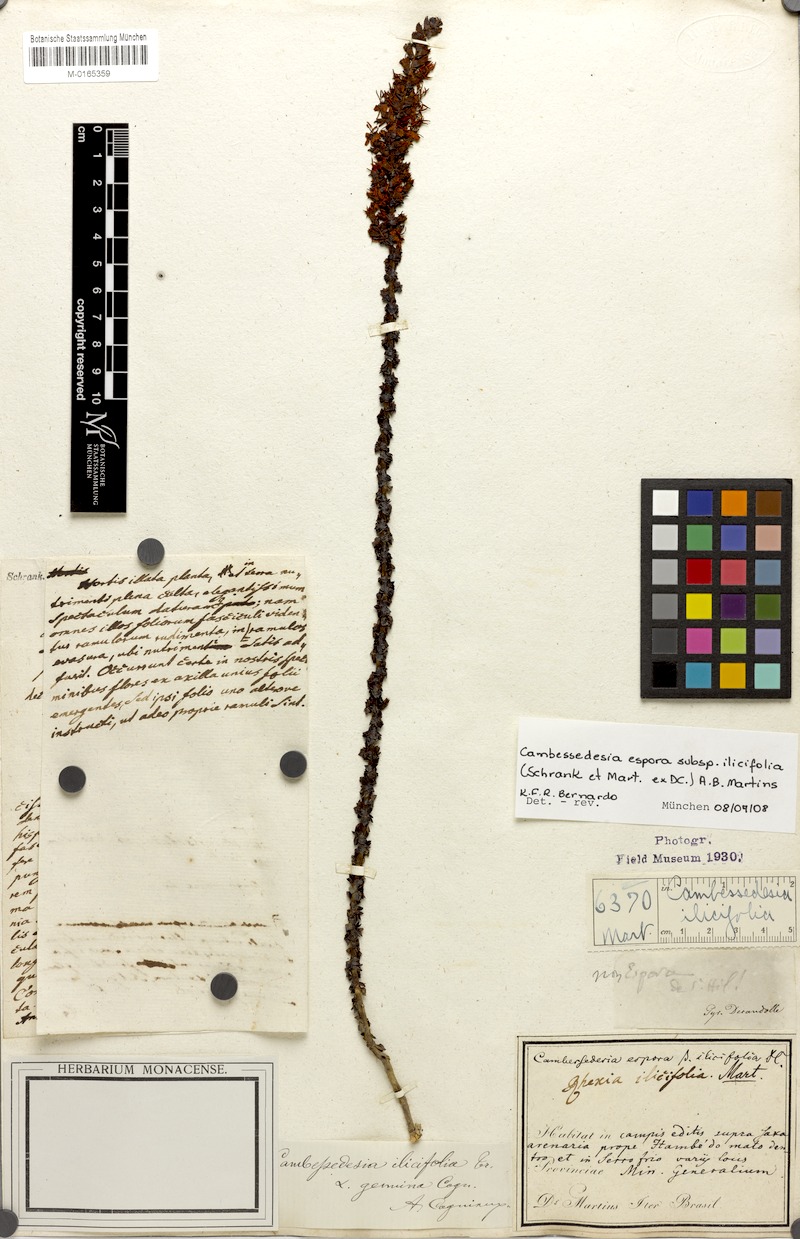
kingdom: Plantae
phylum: Tracheophyta
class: Magnoliopsida
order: Myrtales
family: Melastomataceae
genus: Cambessedesia
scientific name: Cambessedesia espora
